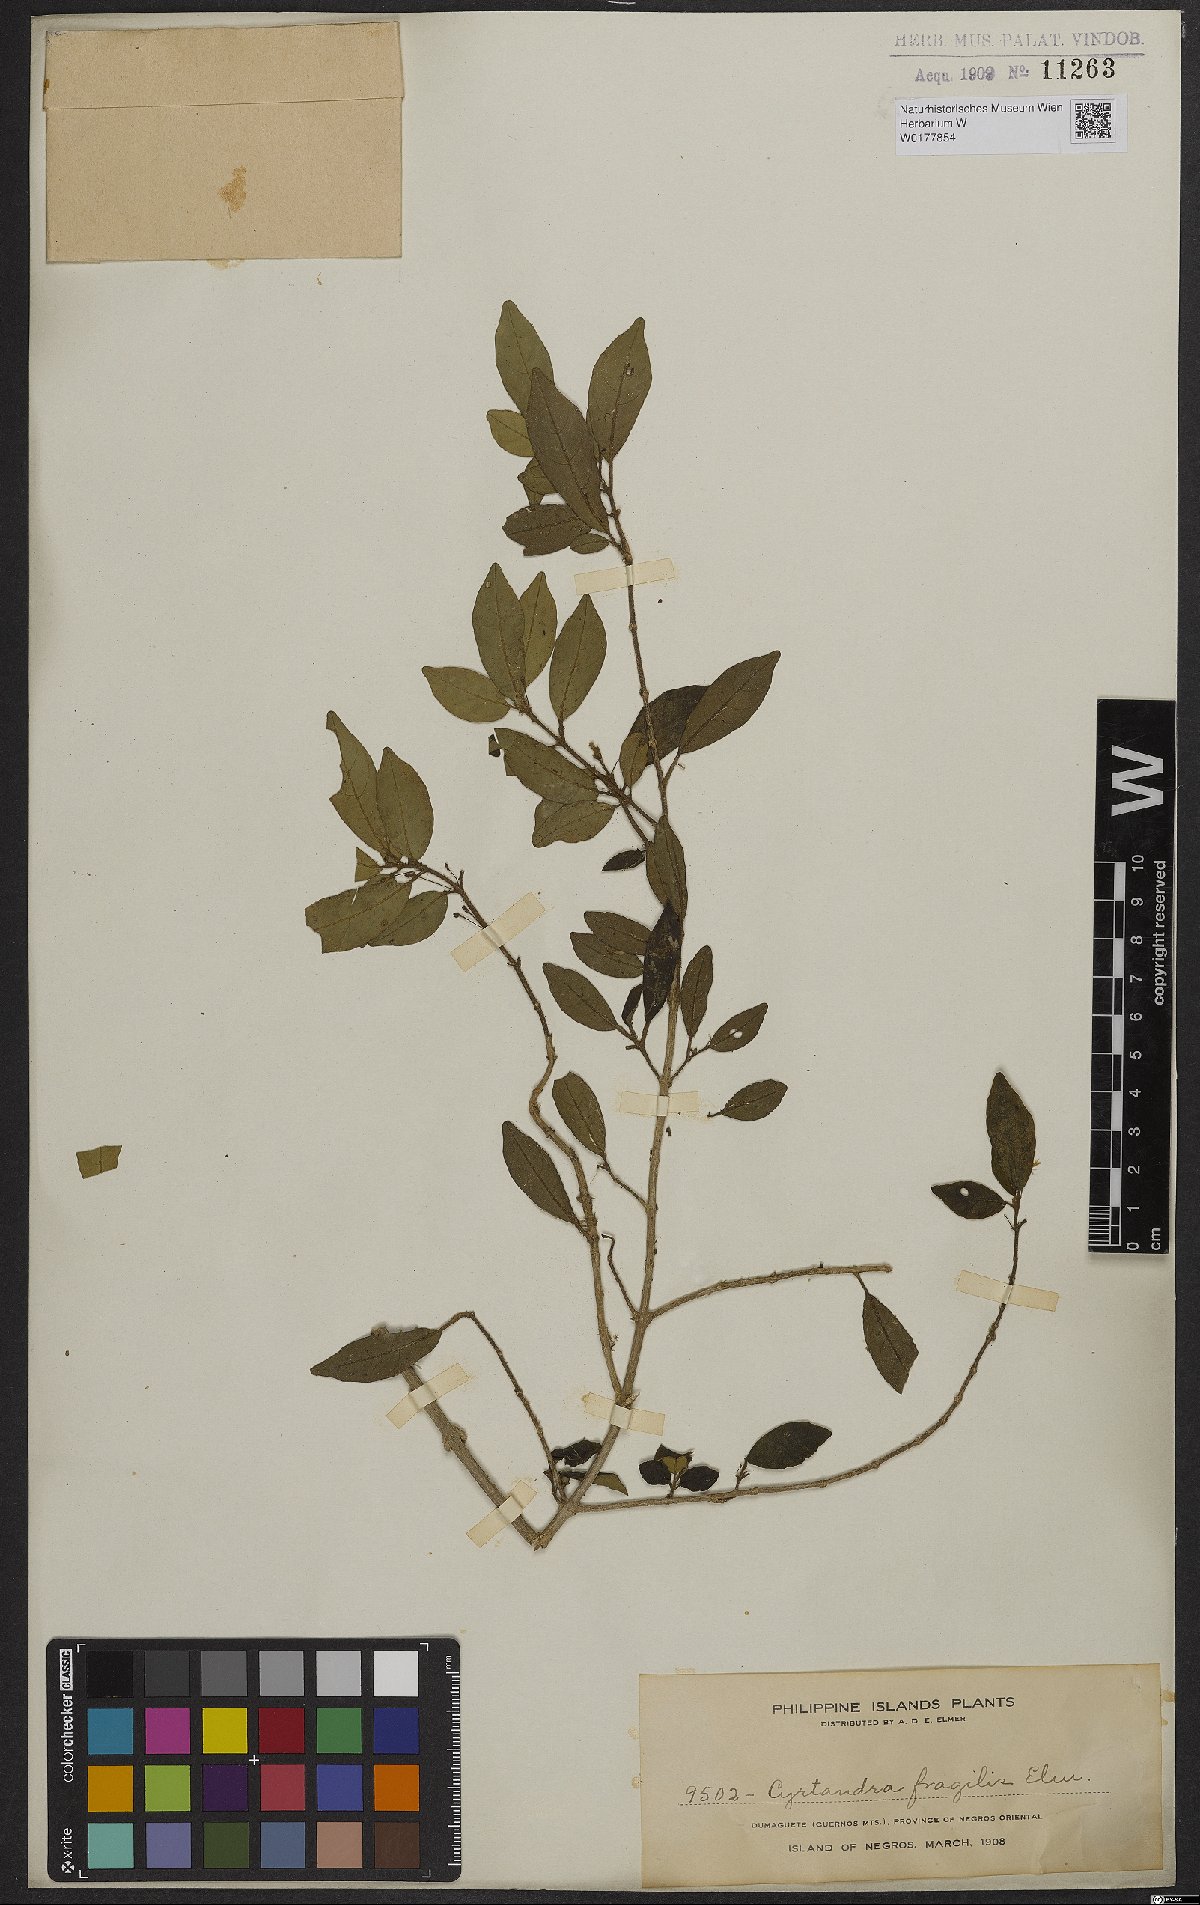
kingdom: Plantae
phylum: Tracheophyta
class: Magnoliopsida
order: Lamiales
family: Gesneriaceae
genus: Cyrtandra
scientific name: Cyrtandra parvifolia
